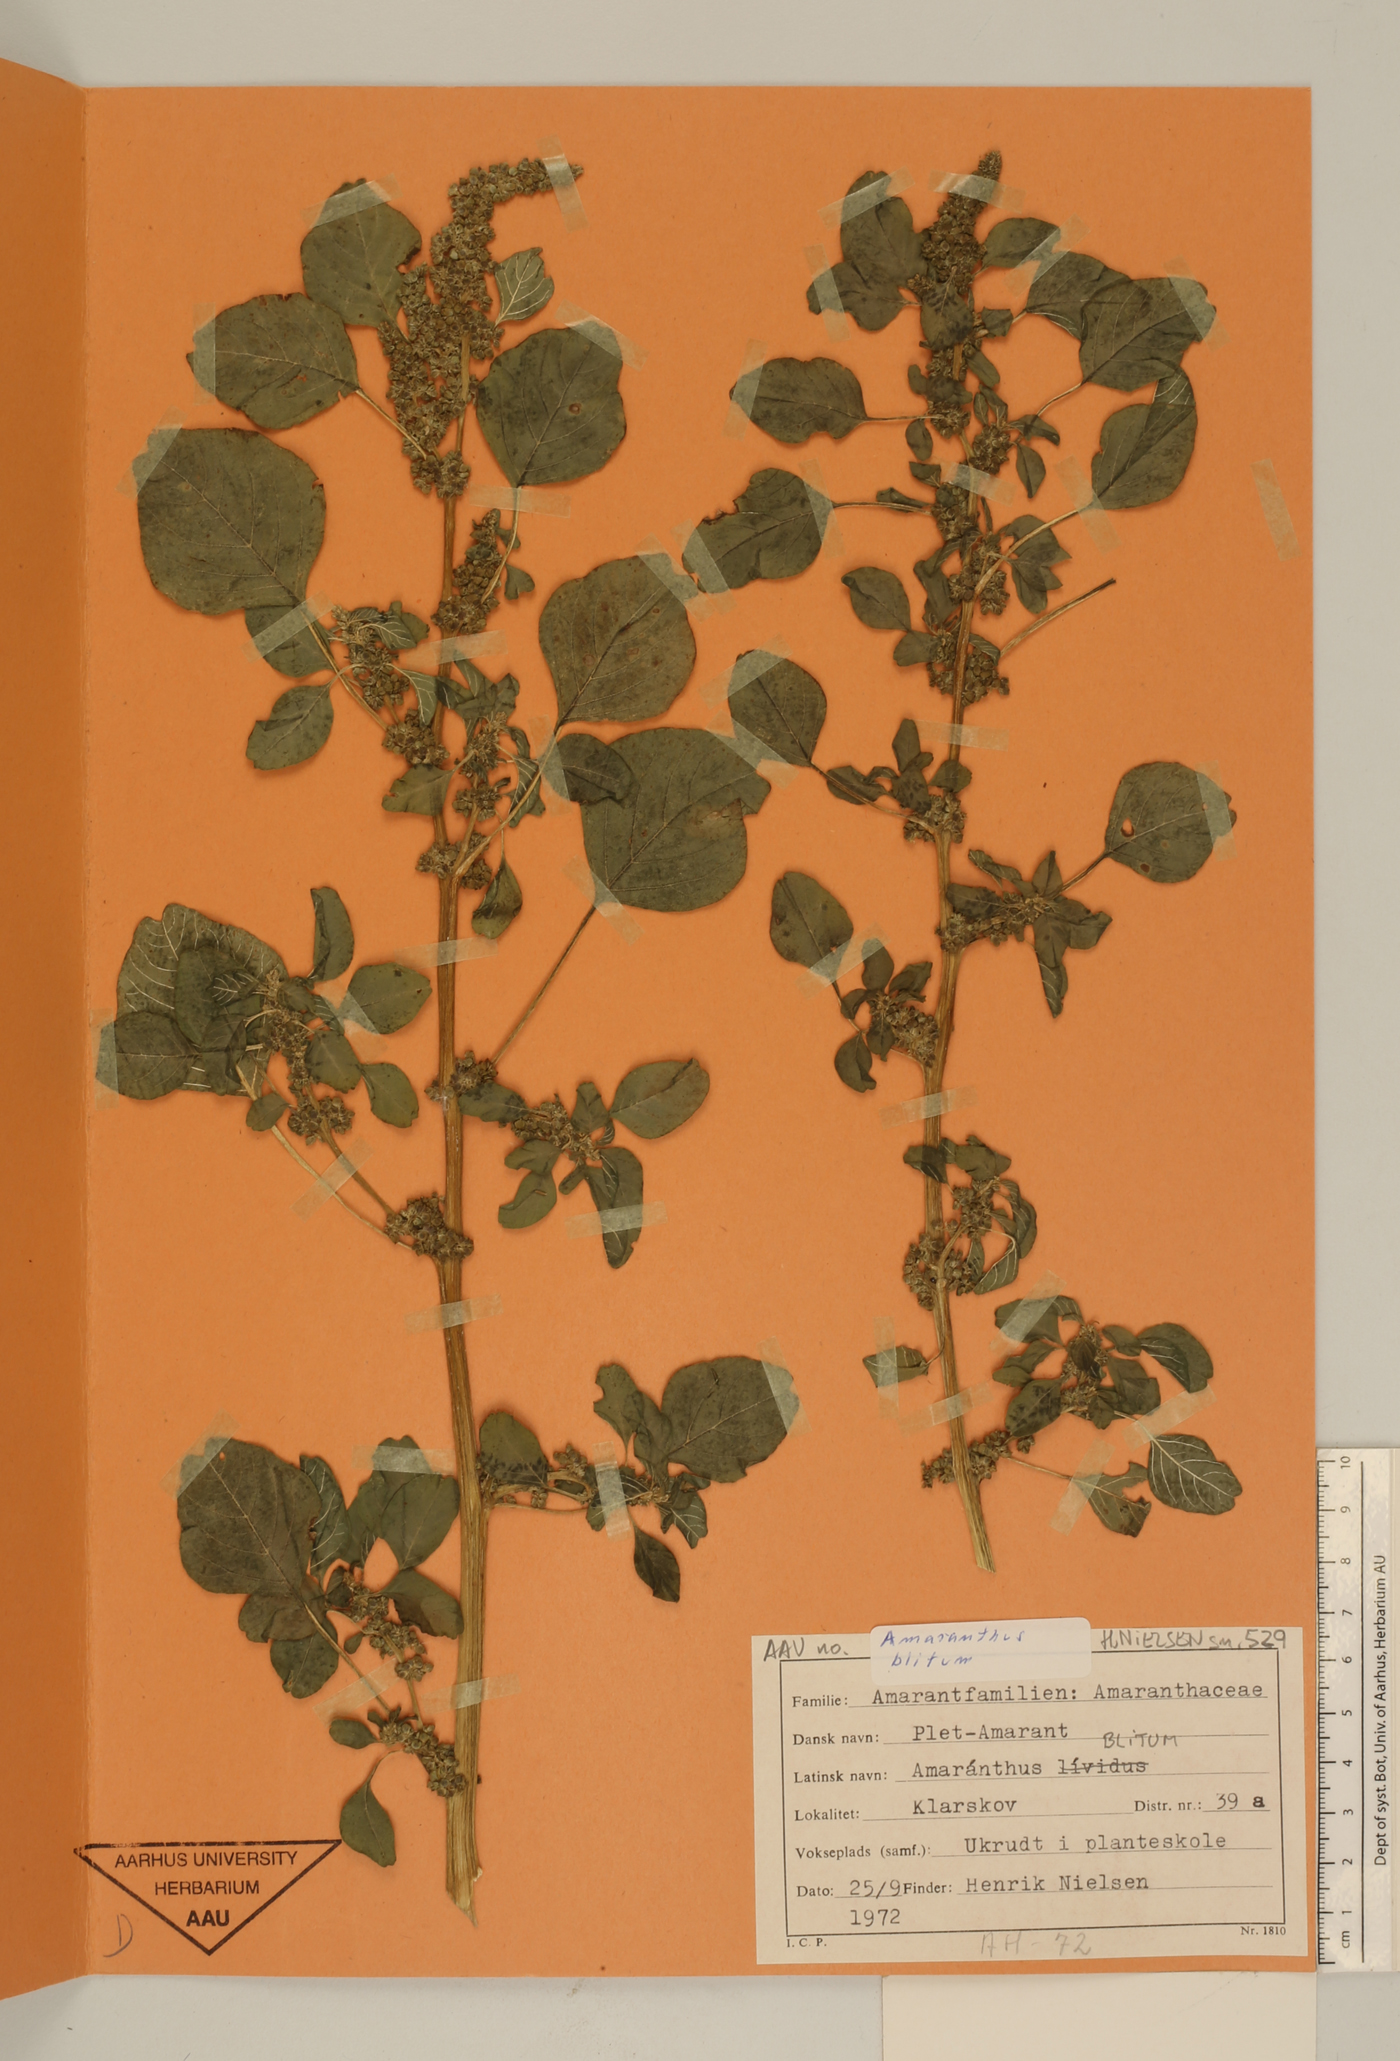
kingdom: Plantae
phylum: Tracheophyta
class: Magnoliopsida
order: Caryophyllales
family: Amaranthaceae
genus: Amaranthus
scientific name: Amaranthus blitum
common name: Purple amaranth
